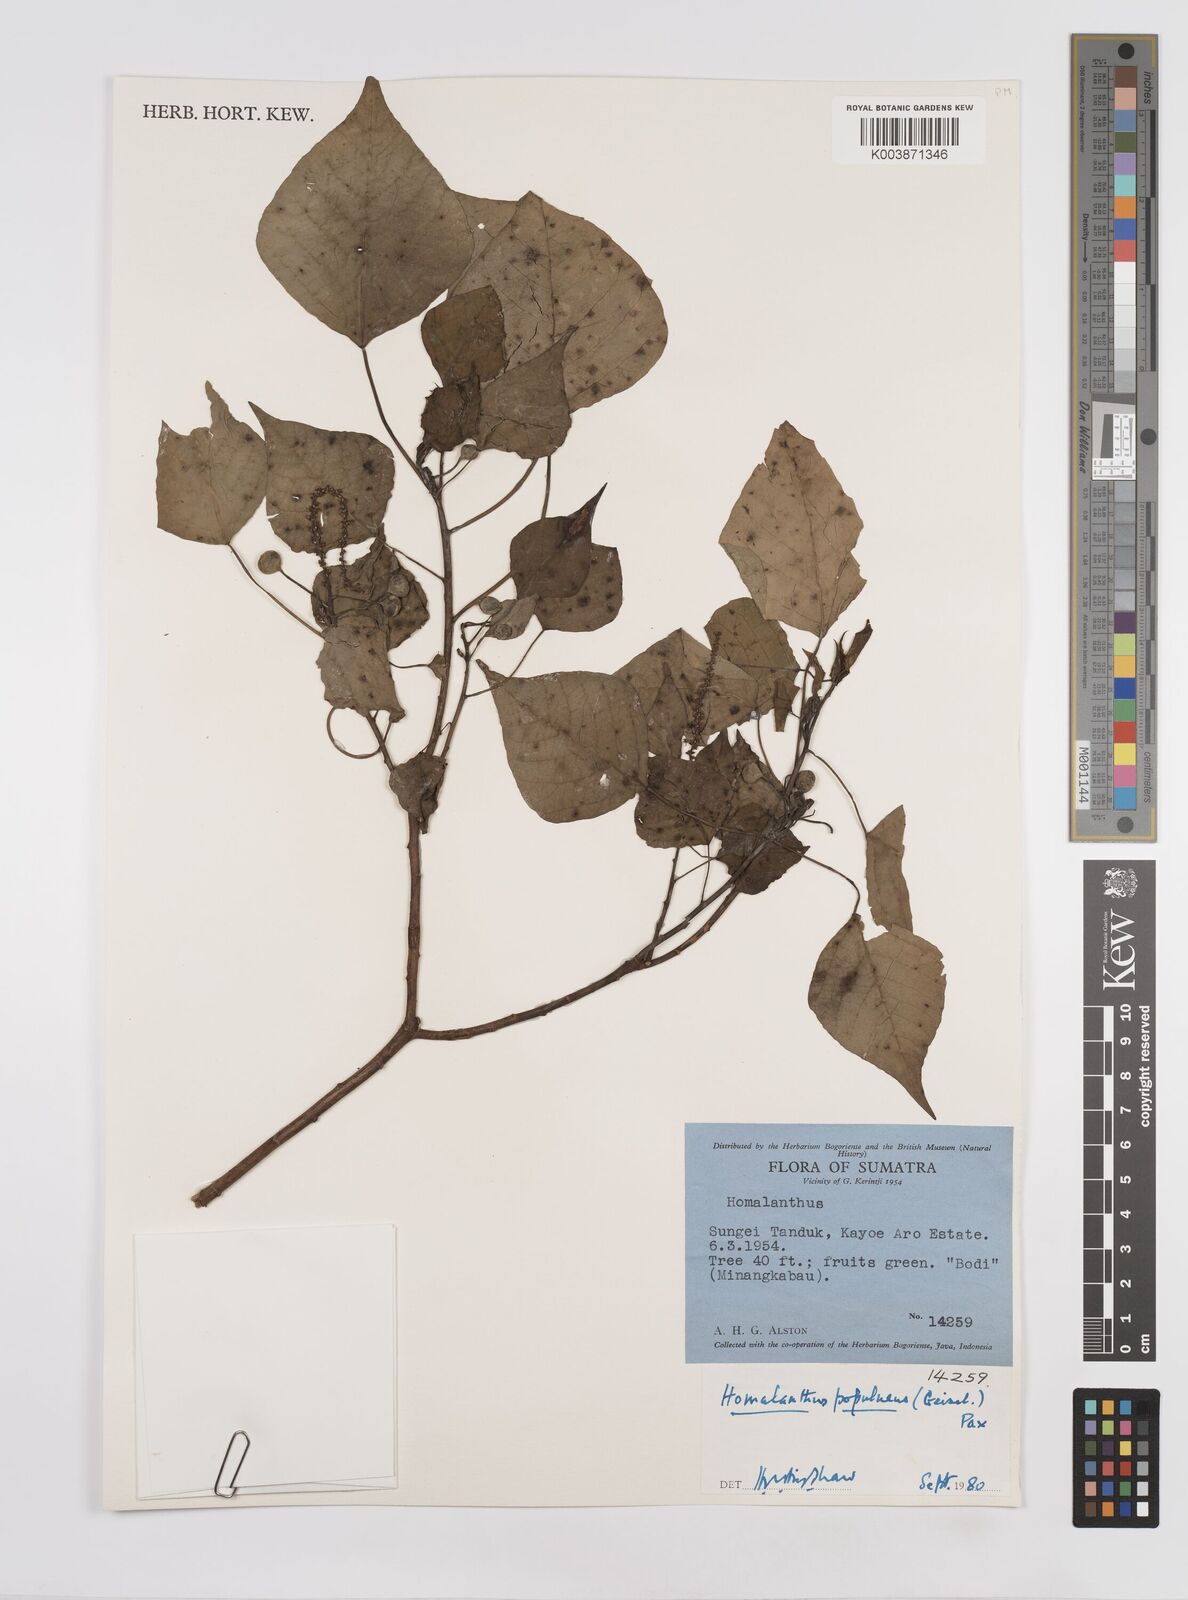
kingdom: Plantae
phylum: Tracheophyta
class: Magnoliopsida
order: Malpighiales
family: Euphorbiaceae
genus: Homalanthus
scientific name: Homalanthus populneus
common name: Spurge
